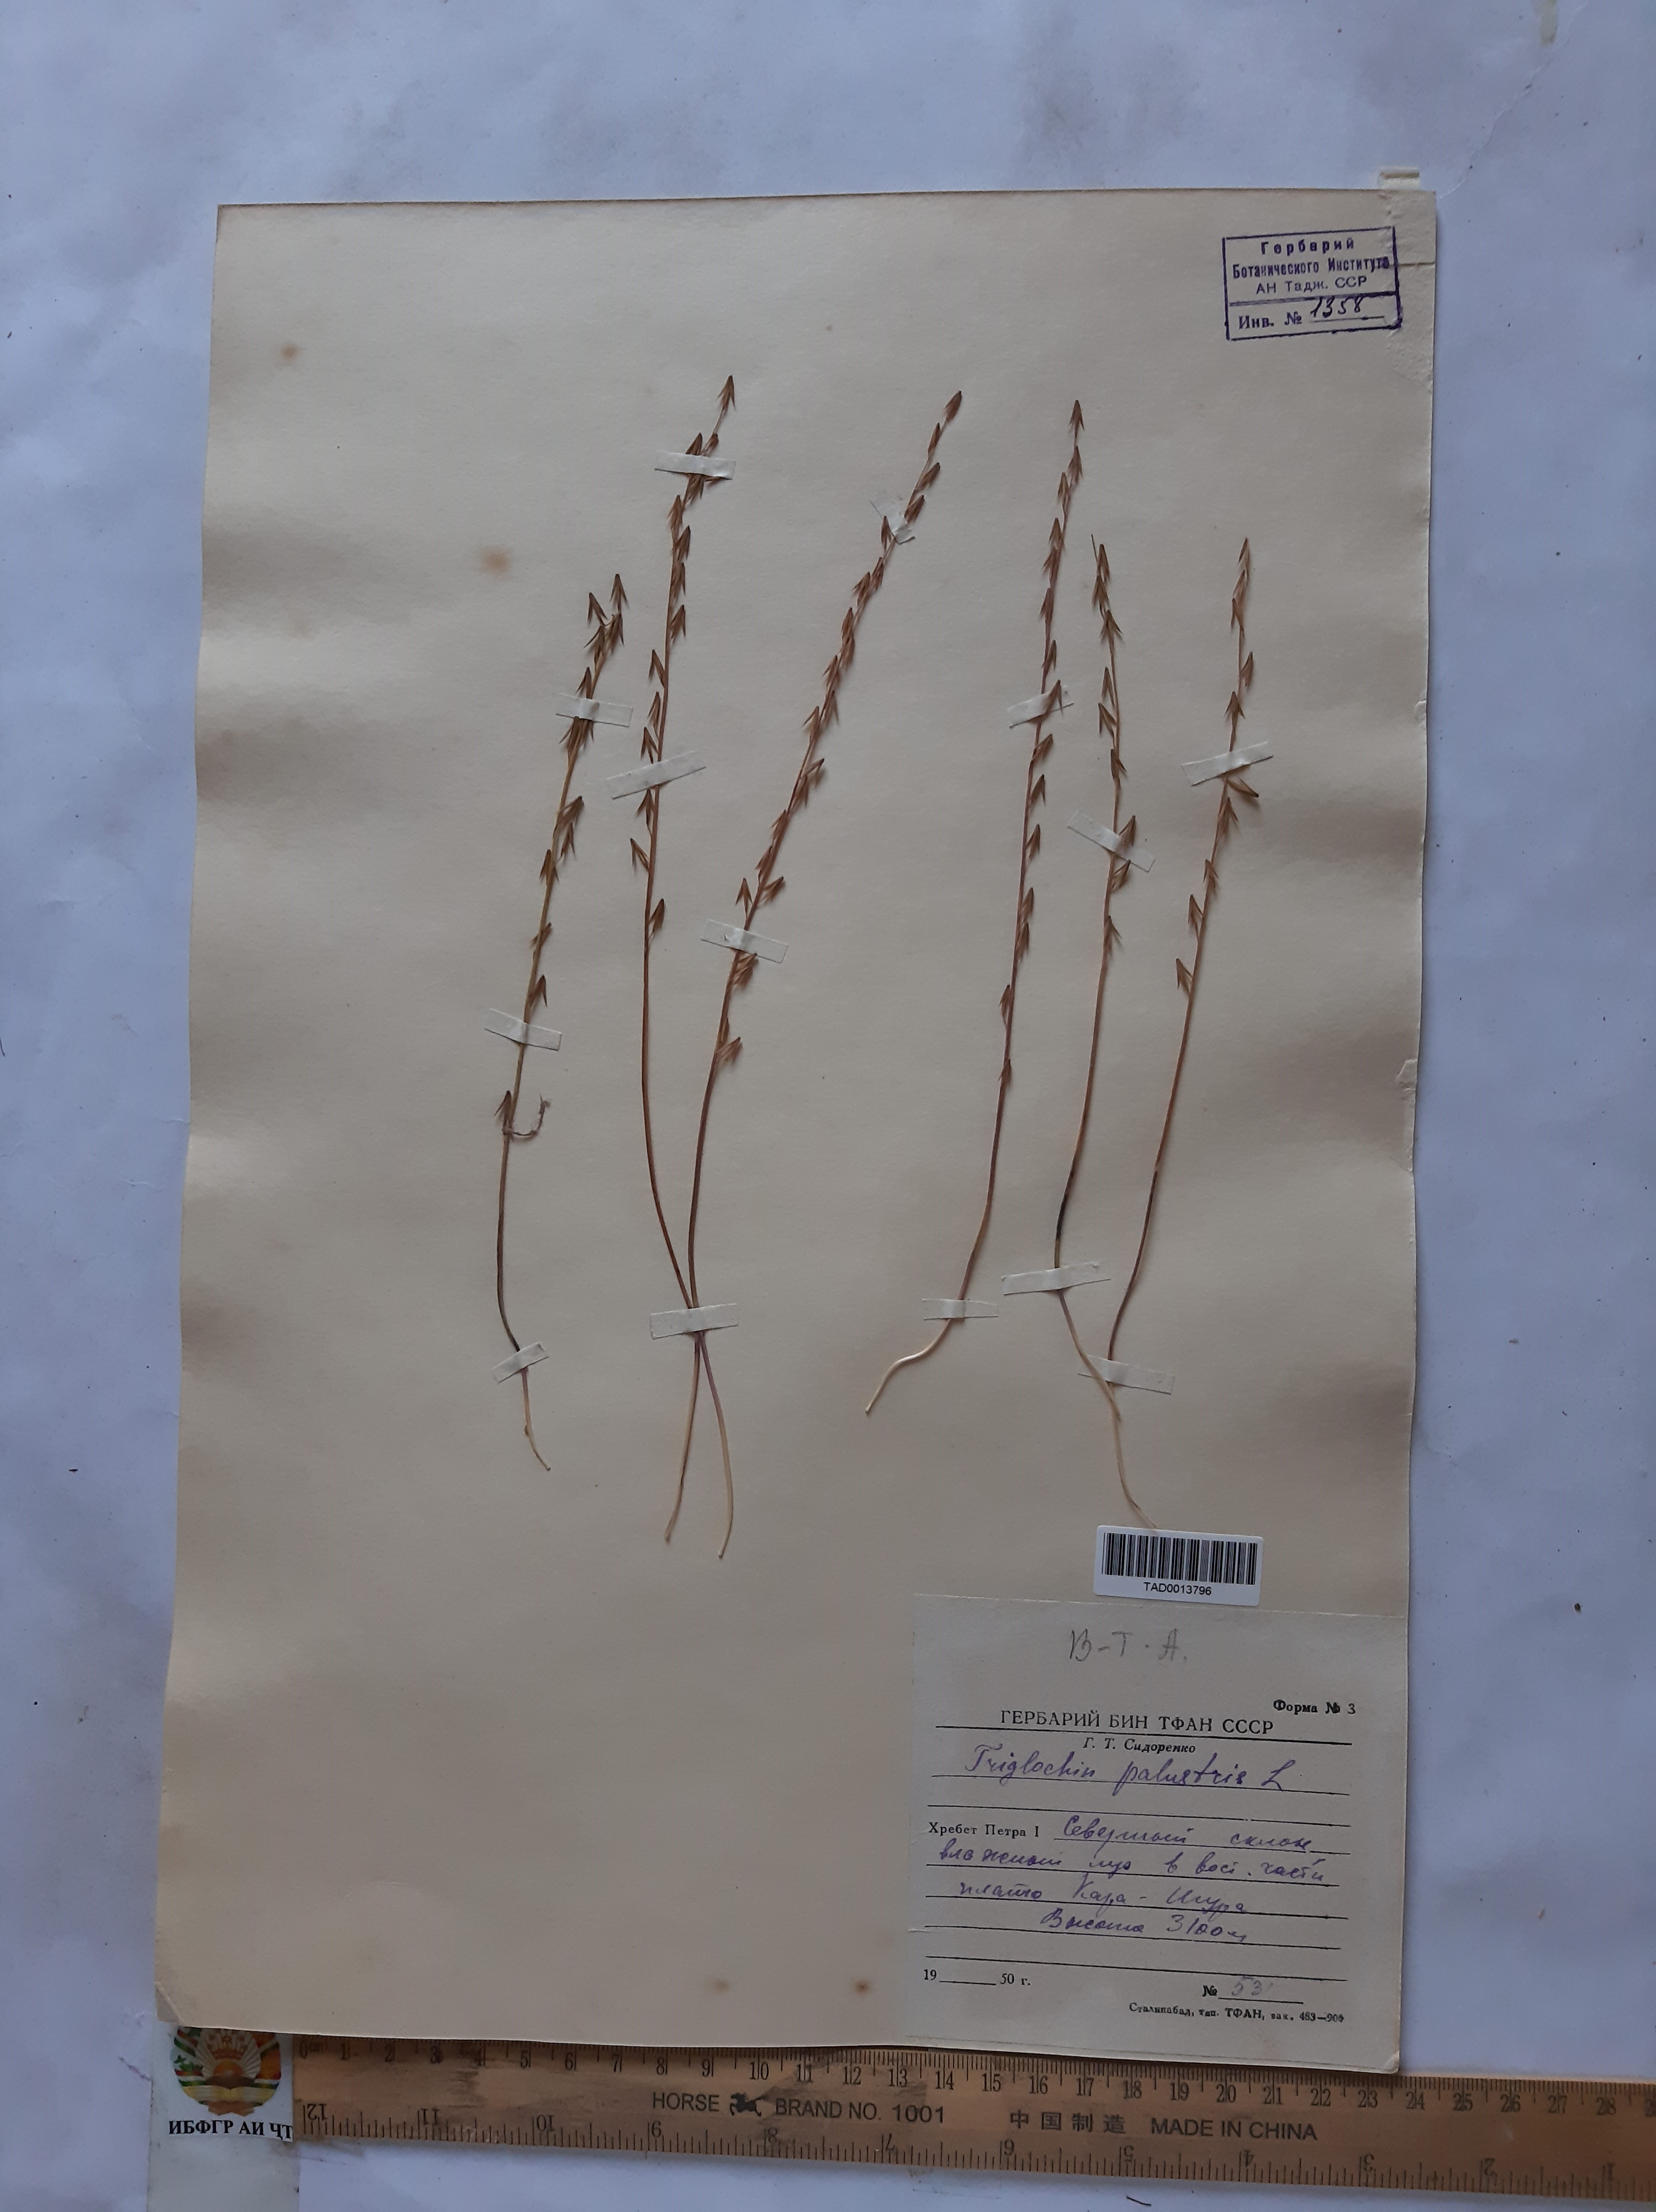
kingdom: Plantae
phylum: Tracheophyta
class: Liliopsida
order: Alismatales
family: Juncaginaceae
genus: Triglochin
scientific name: Triglochin palustris
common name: Marsh arrowgrass
